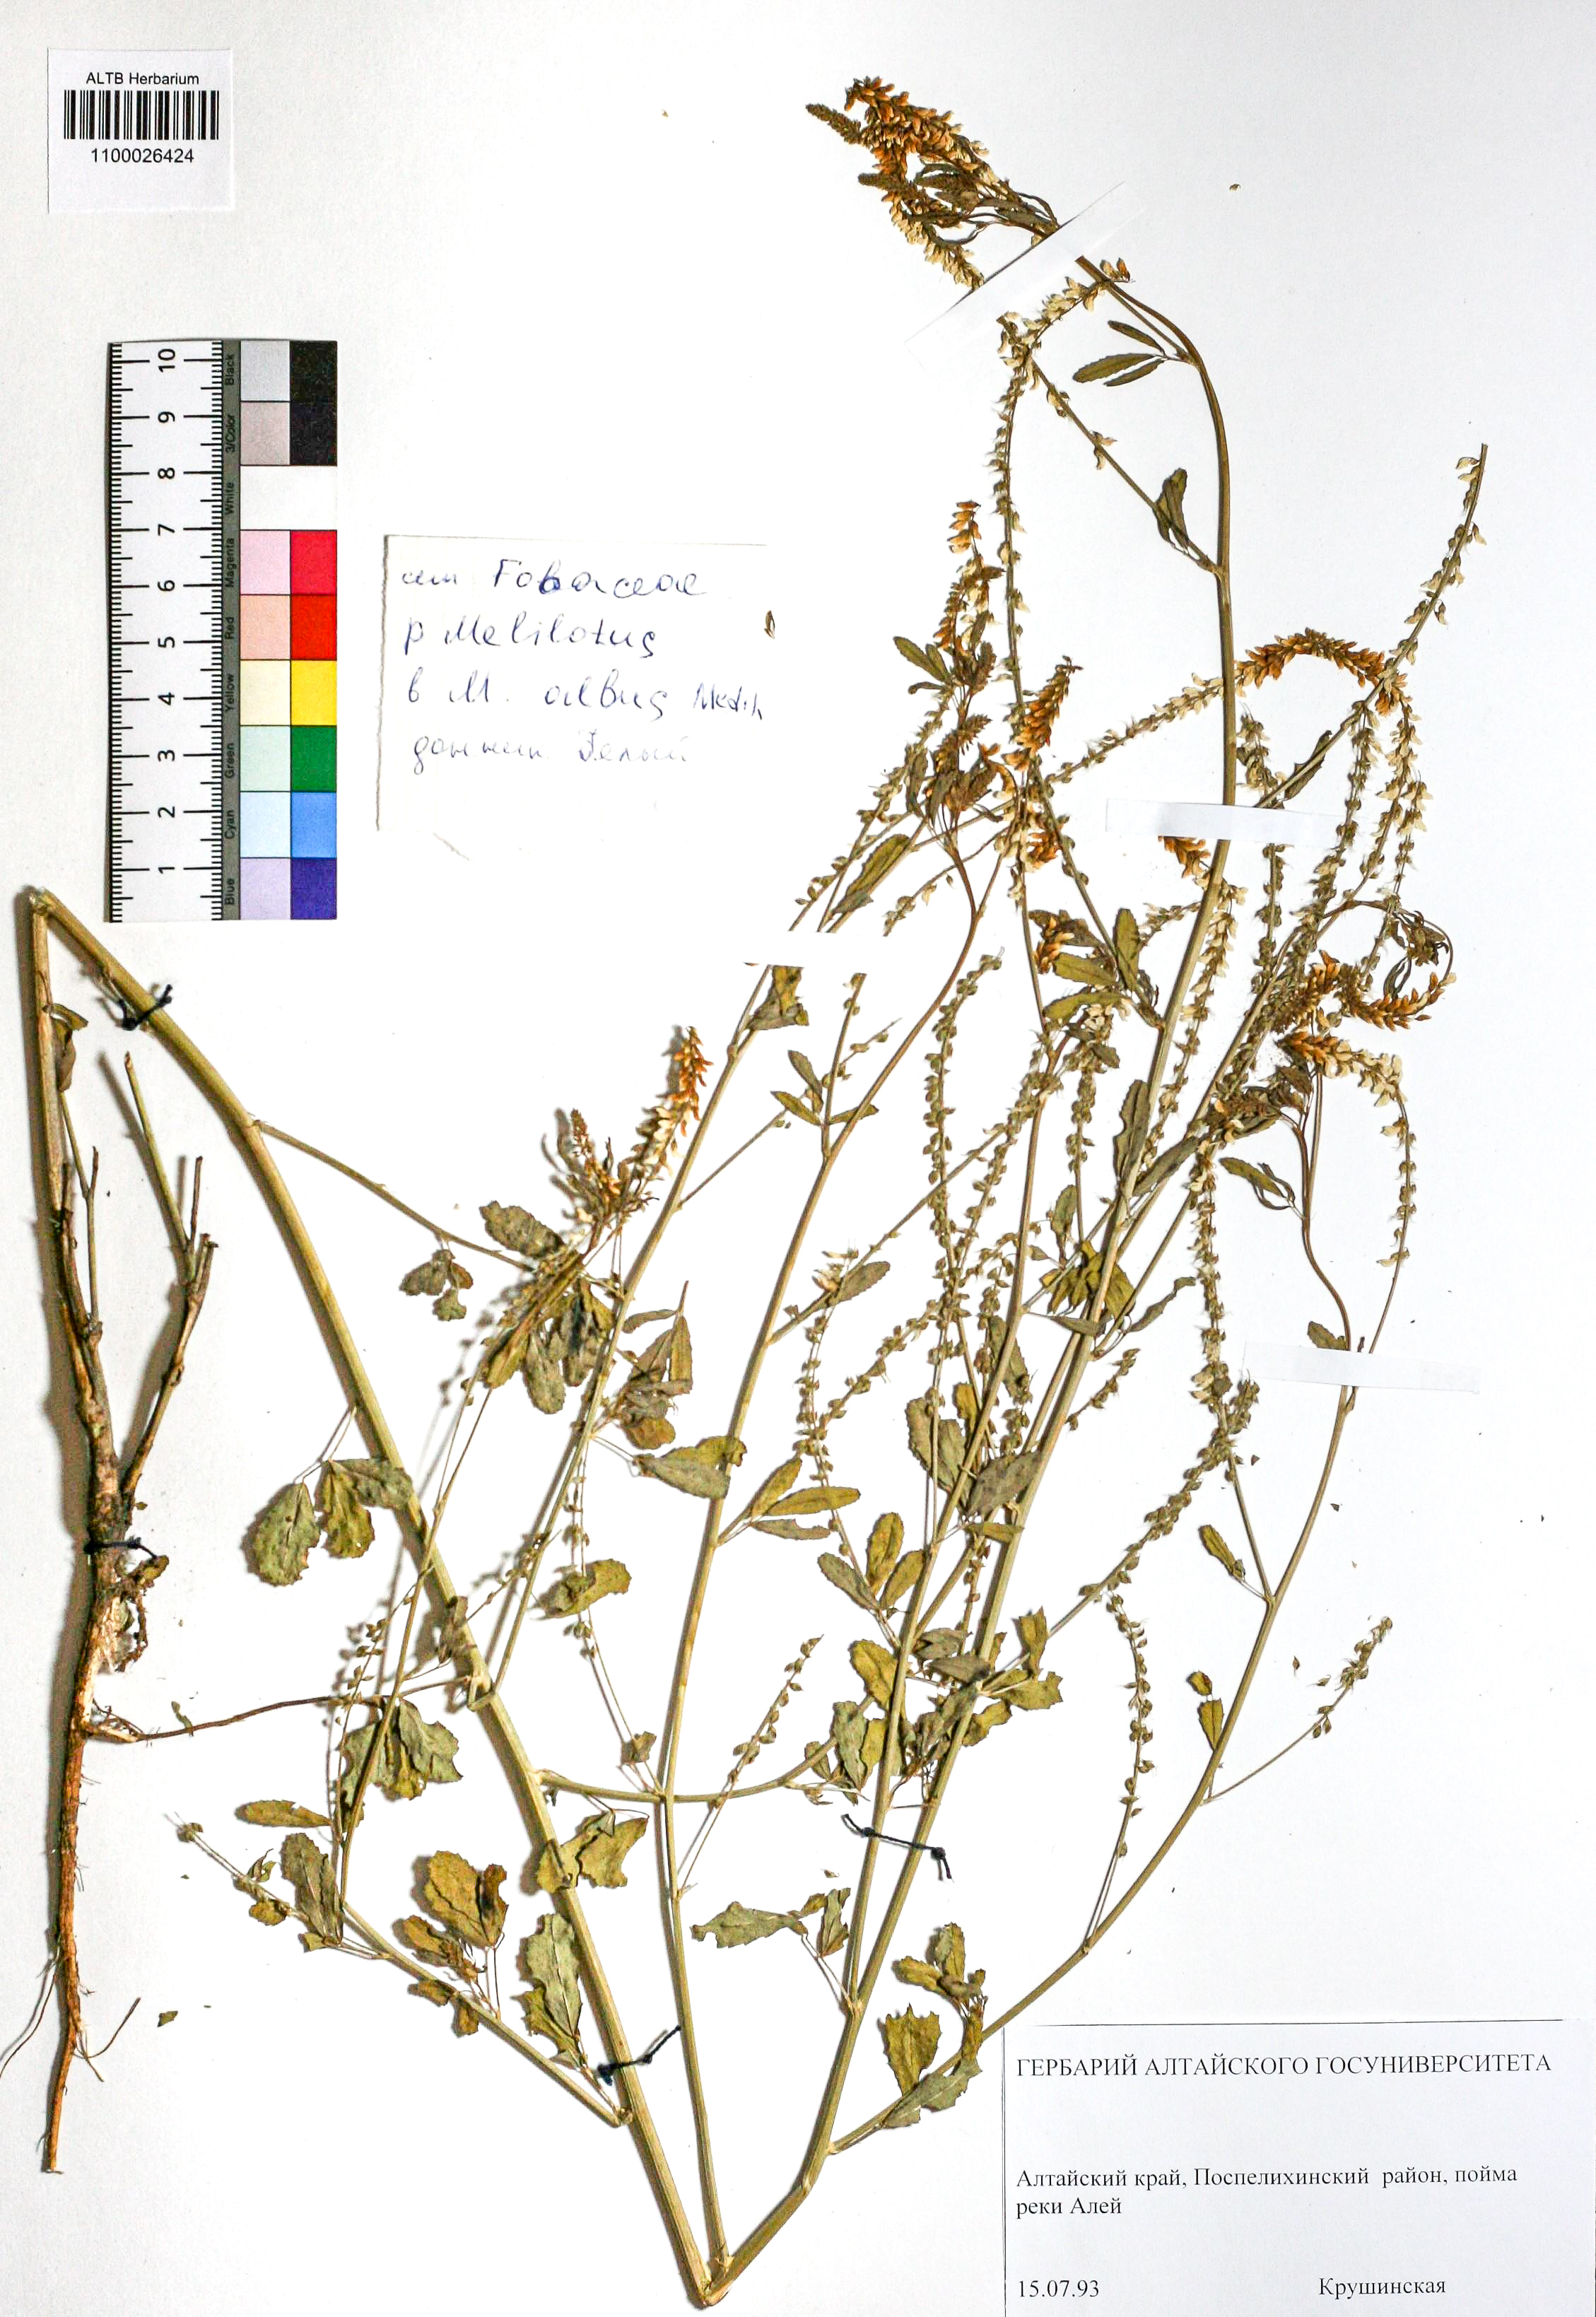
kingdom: Plantae
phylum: Tracheophyta
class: Magnoliopsida
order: Fabales
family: Fabaceae
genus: Melilotus
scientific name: Melilotus albus
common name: White melilot
